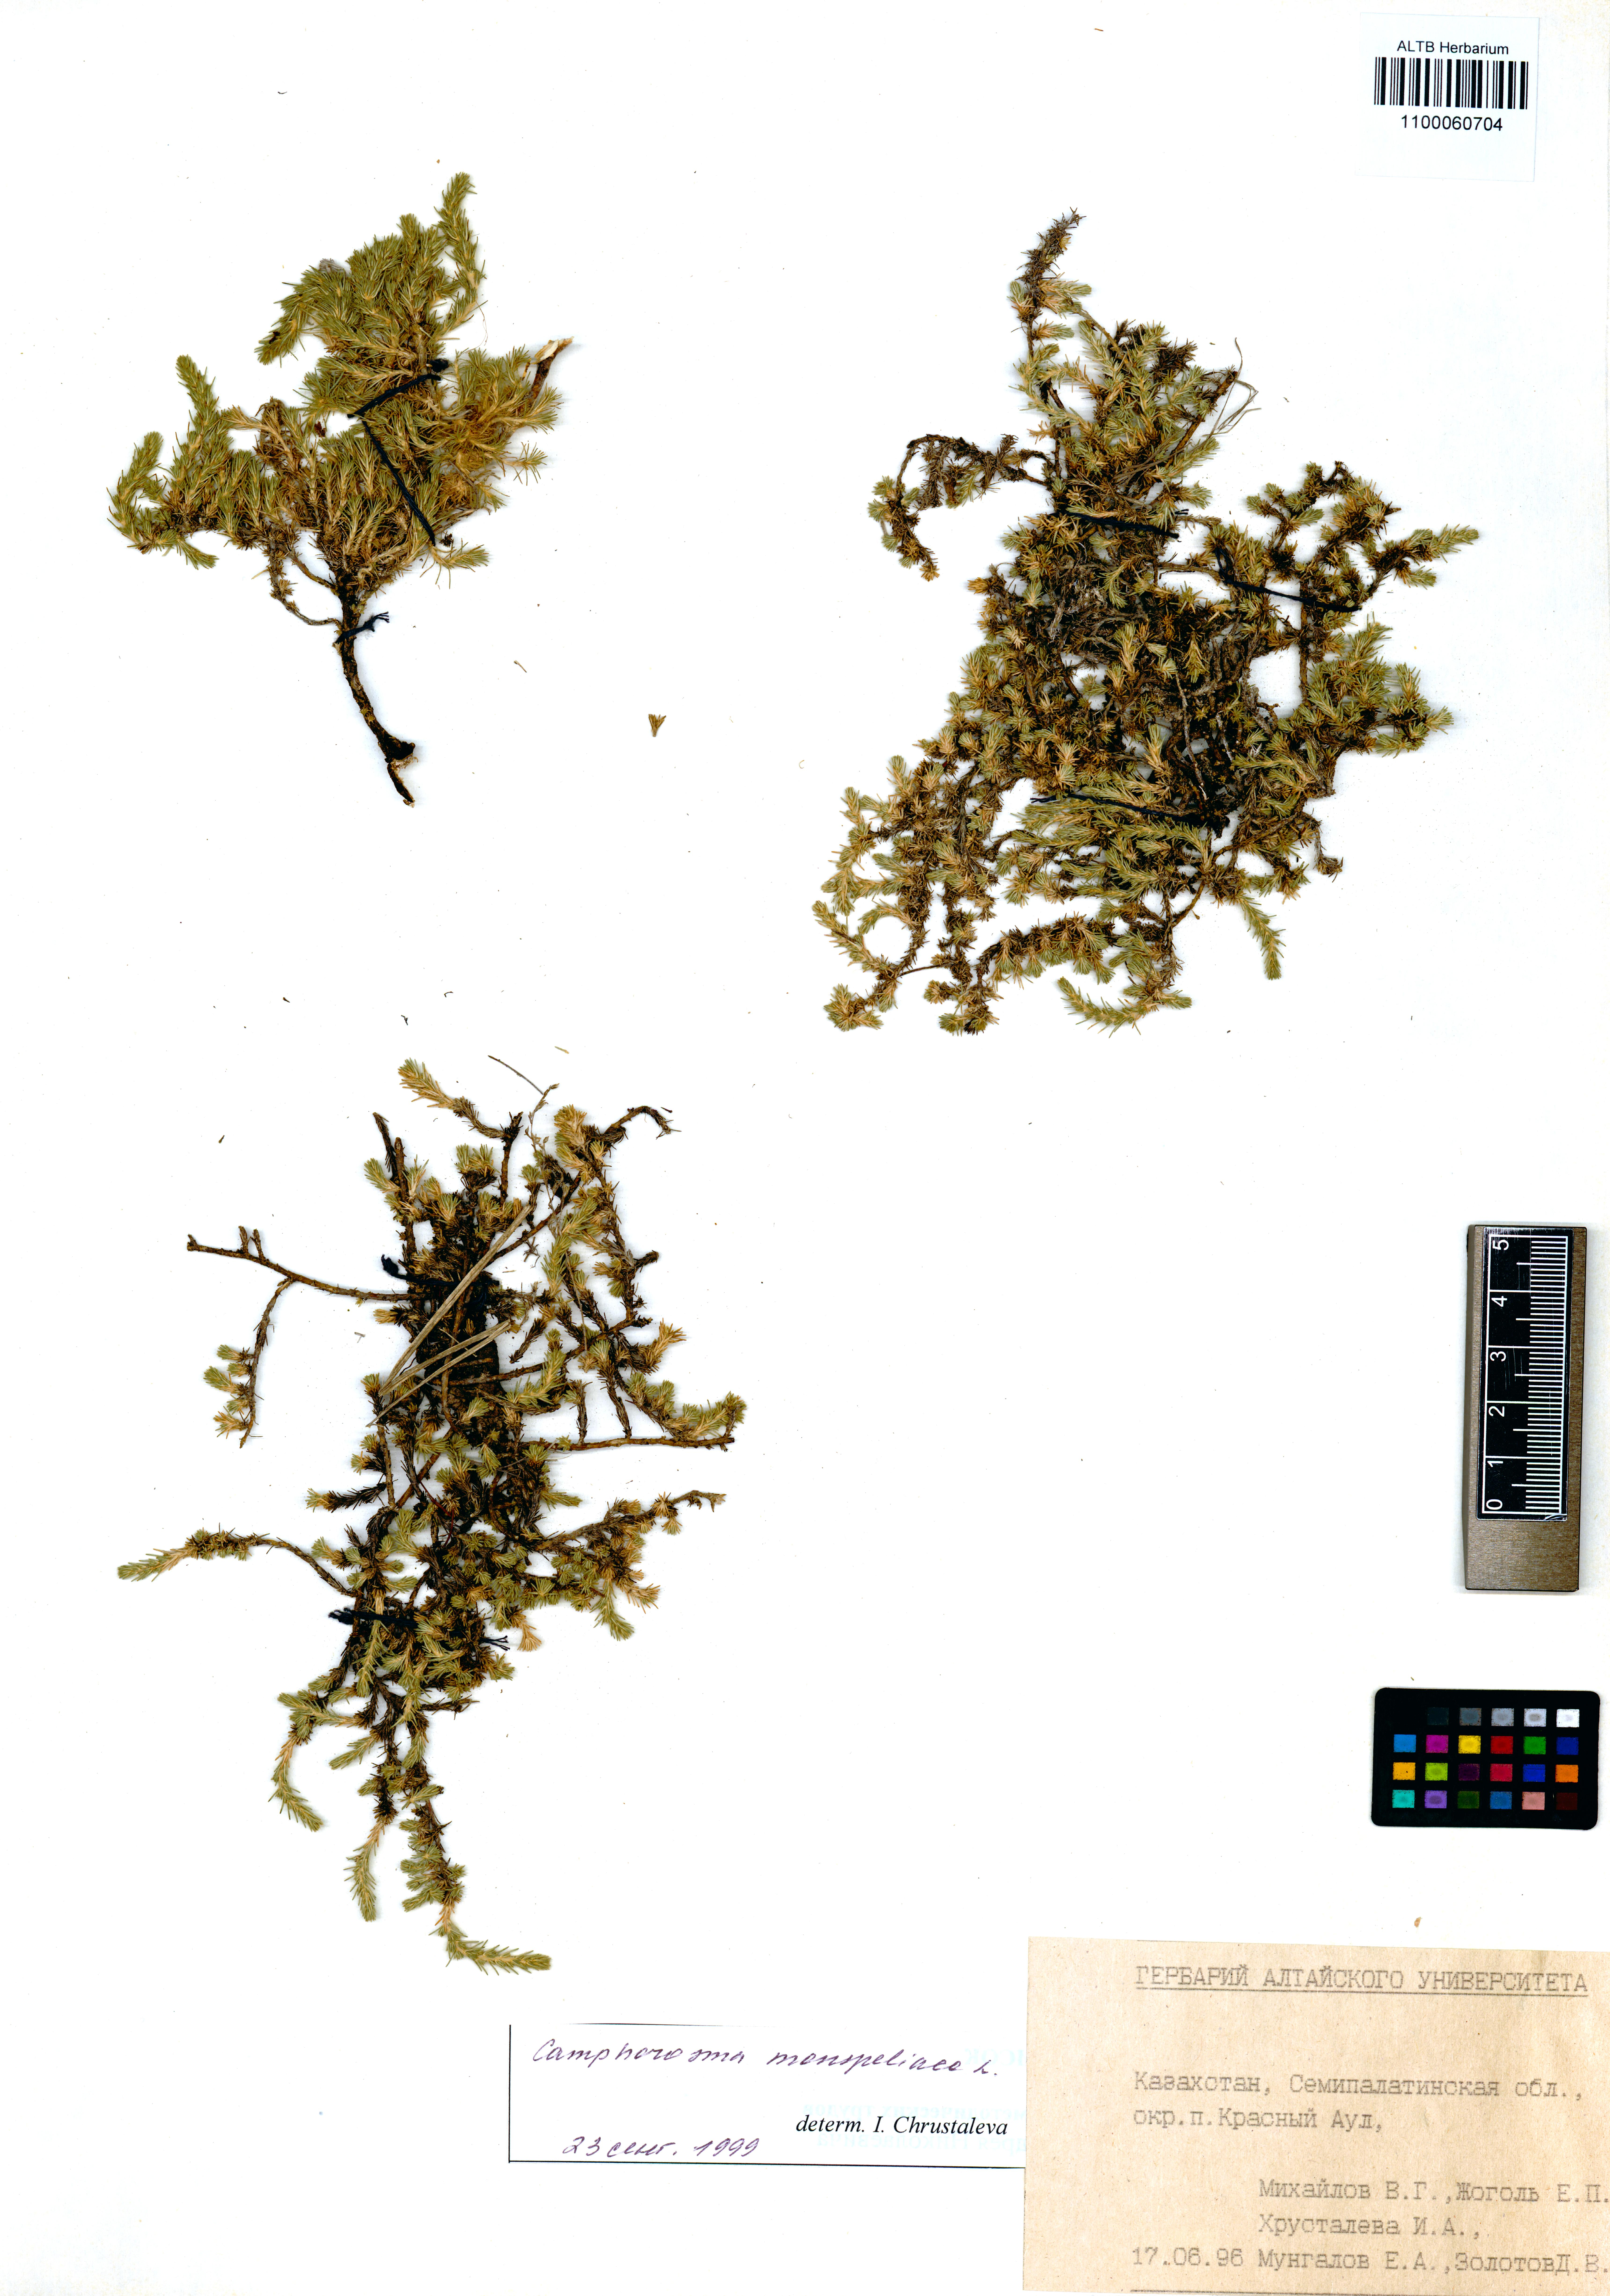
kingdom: Plantae
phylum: Tracheophyta
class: Magnoliopsida
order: Caryophyllales
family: Amaranthaceae
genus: Camphorosma
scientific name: Camphorosma monspeliaca
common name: Camphorfume
